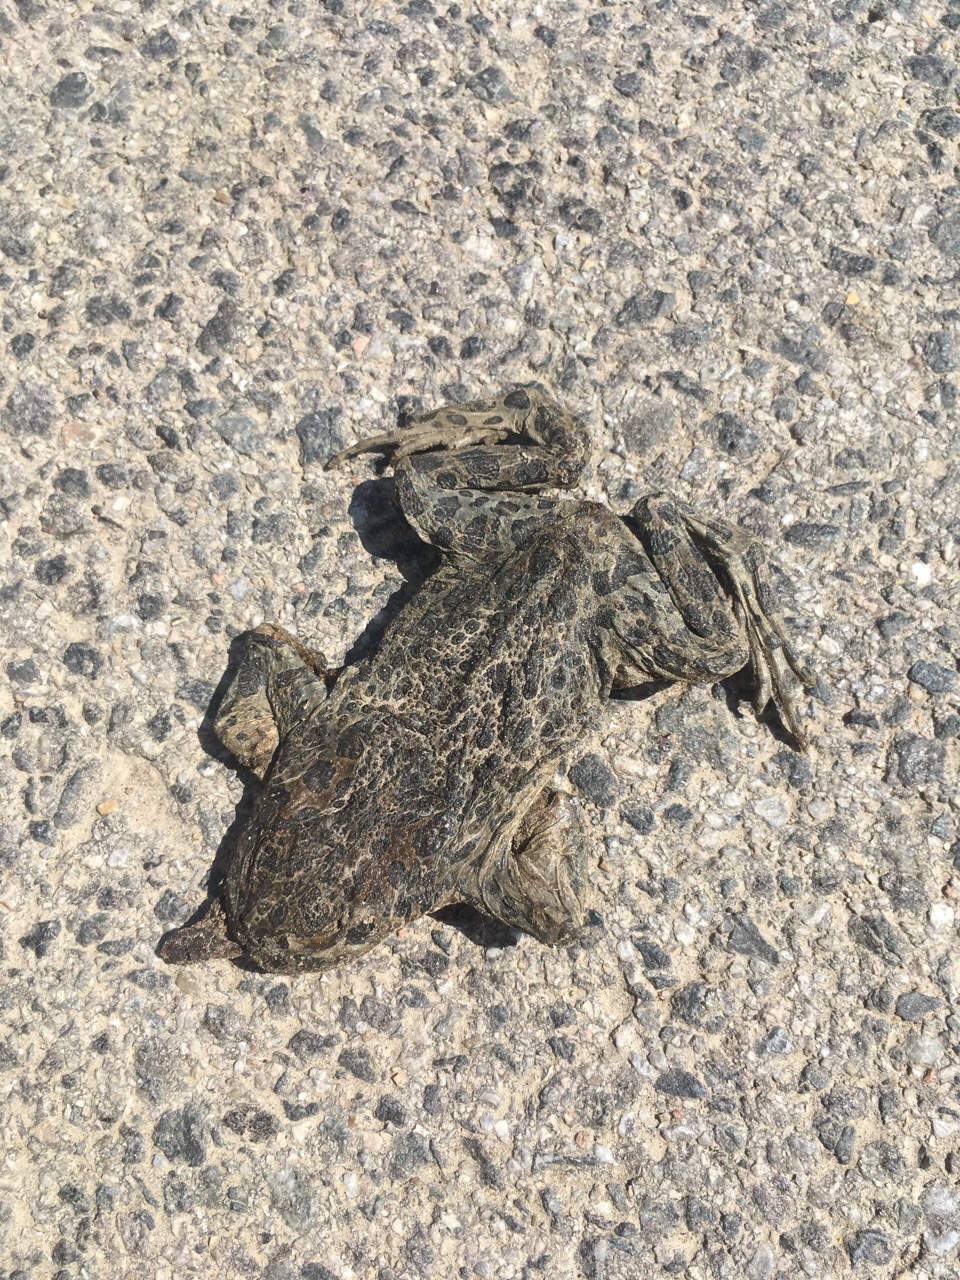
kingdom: Animalia
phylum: Chordata
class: Amphibia
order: Anura
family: Bufonidae
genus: Bufotes
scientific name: Bufotes viridis
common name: European green toad
